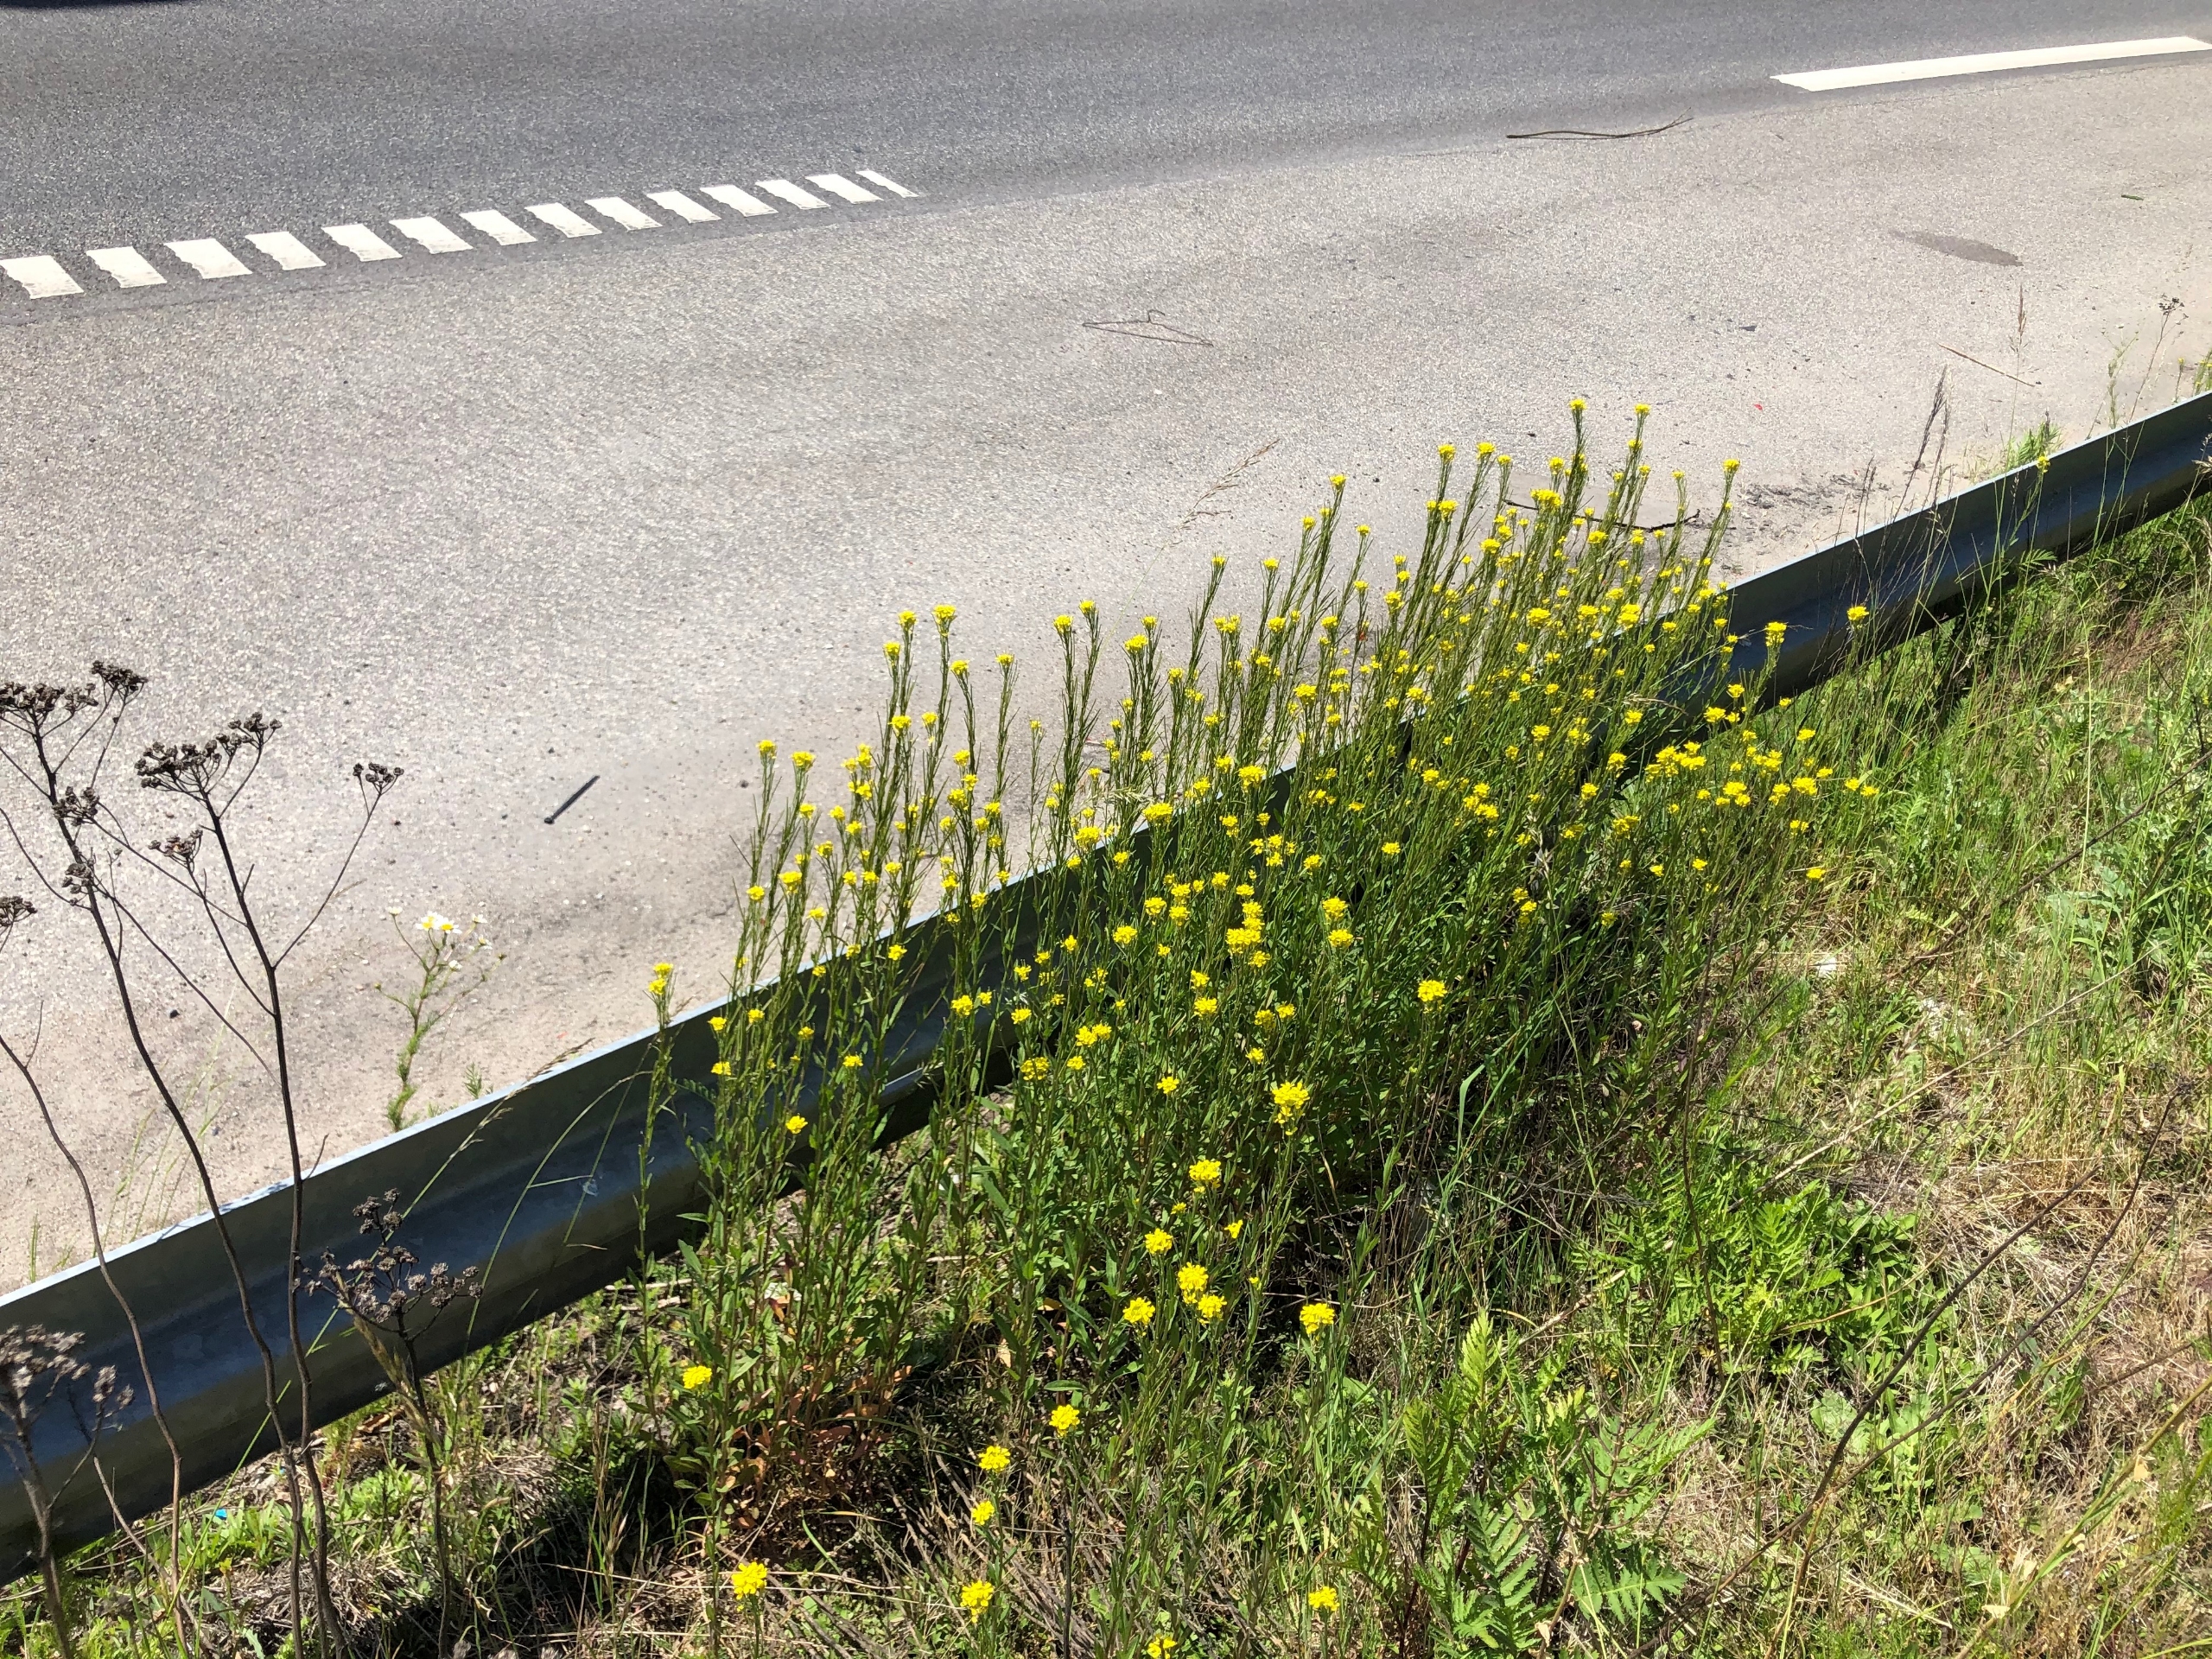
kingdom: Plantae
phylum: Tracheophyta
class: Magnoliopsida
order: Brassicales
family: Brassicaceae
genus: Erysimum
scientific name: Erysimum strictum
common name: Rank hjørneklap
